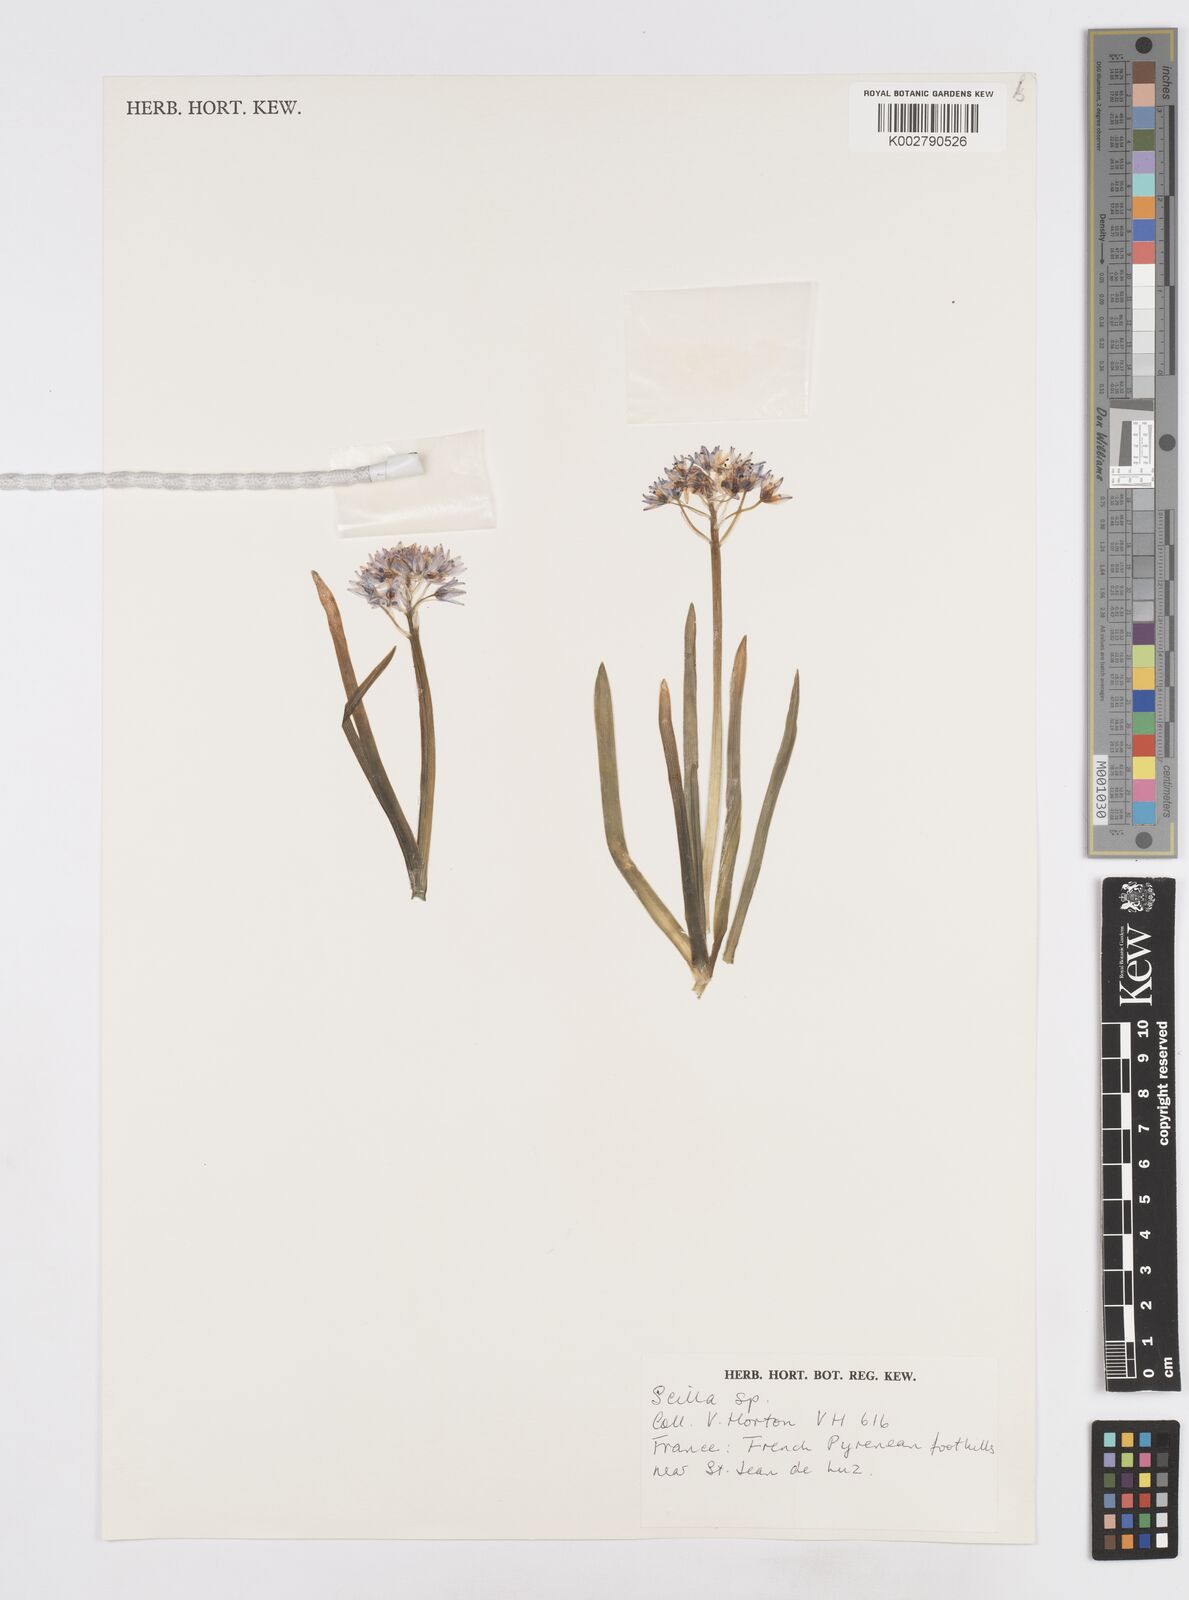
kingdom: Plantae
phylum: Tracheophyta
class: Liliopsida
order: Asparagales
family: Asparagaceae
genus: Scilla
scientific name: Scilla
